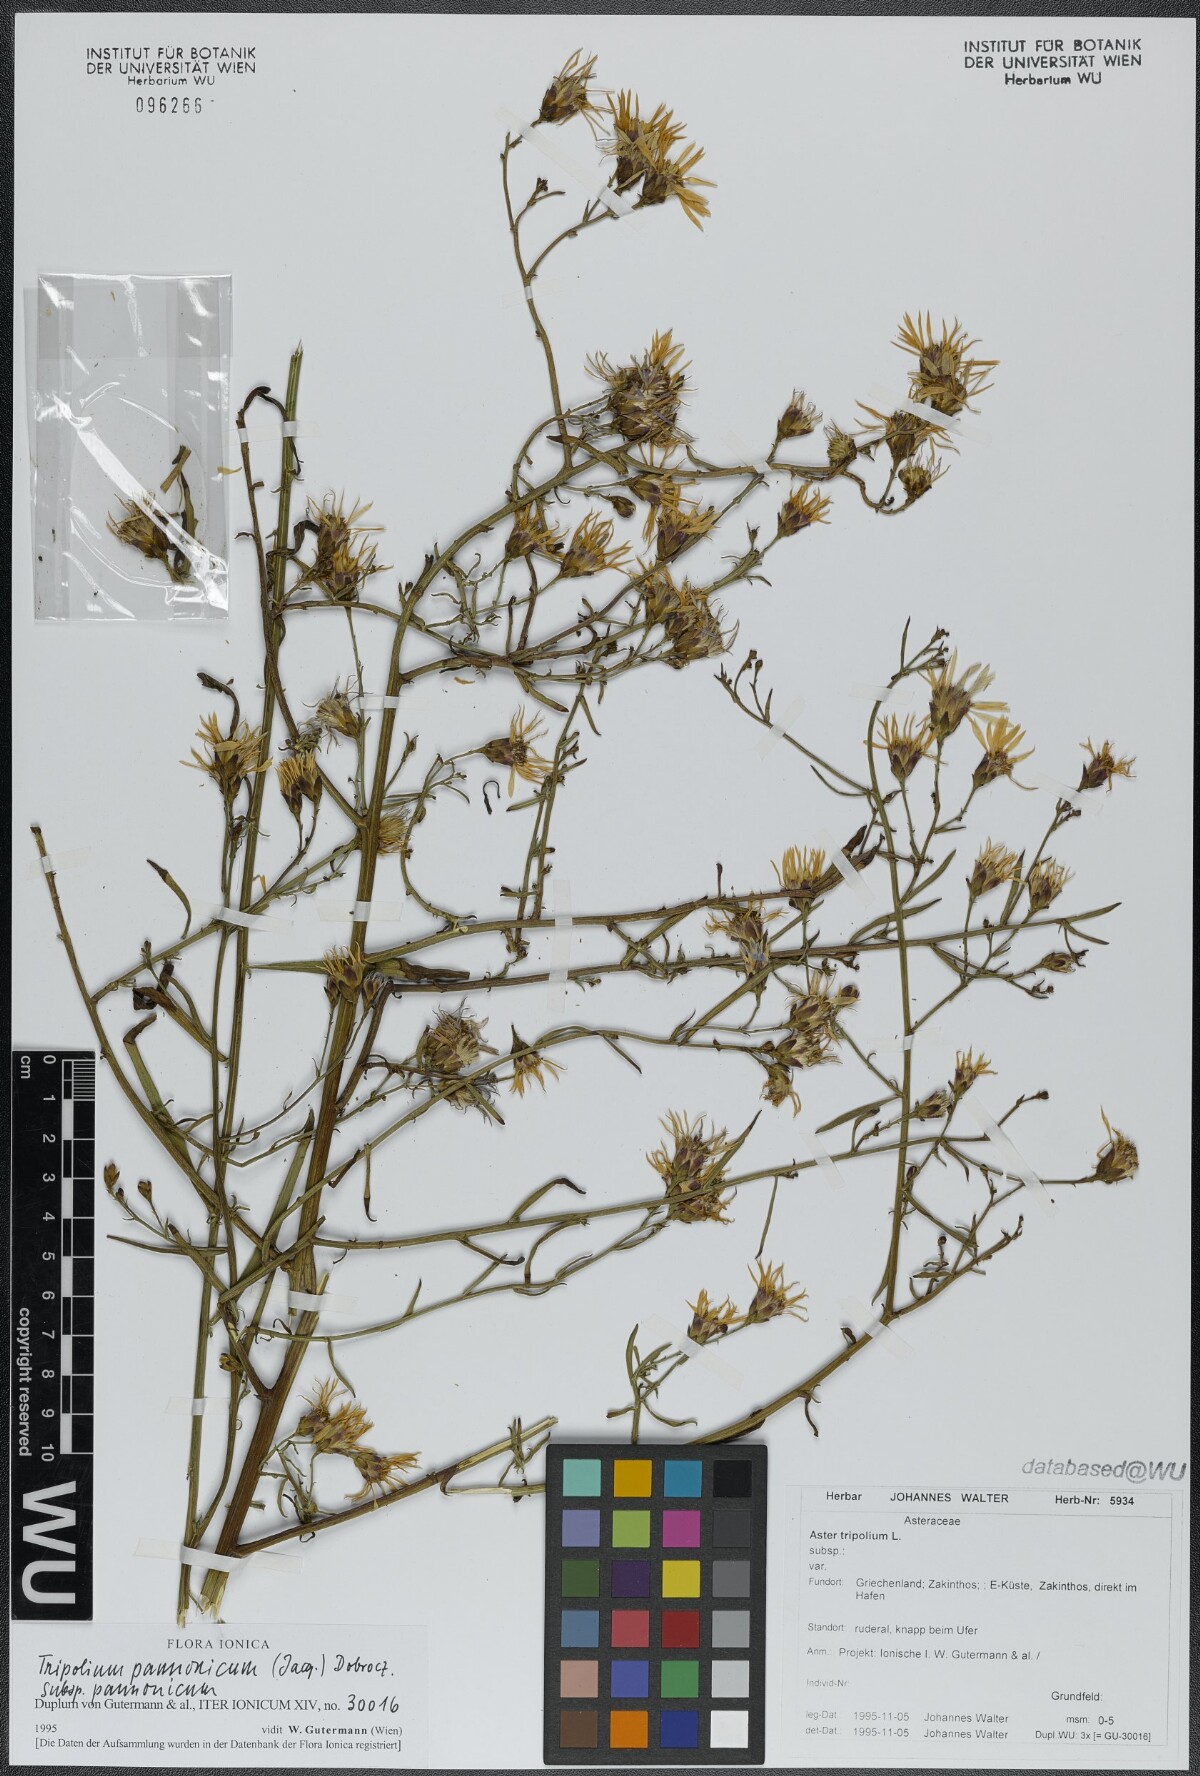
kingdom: Plantae
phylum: Tracheophyta
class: Magnoliopsida
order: Asterales
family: Asteraceae
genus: Tripolium
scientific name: Tripolium pannonicum
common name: Sea aster
